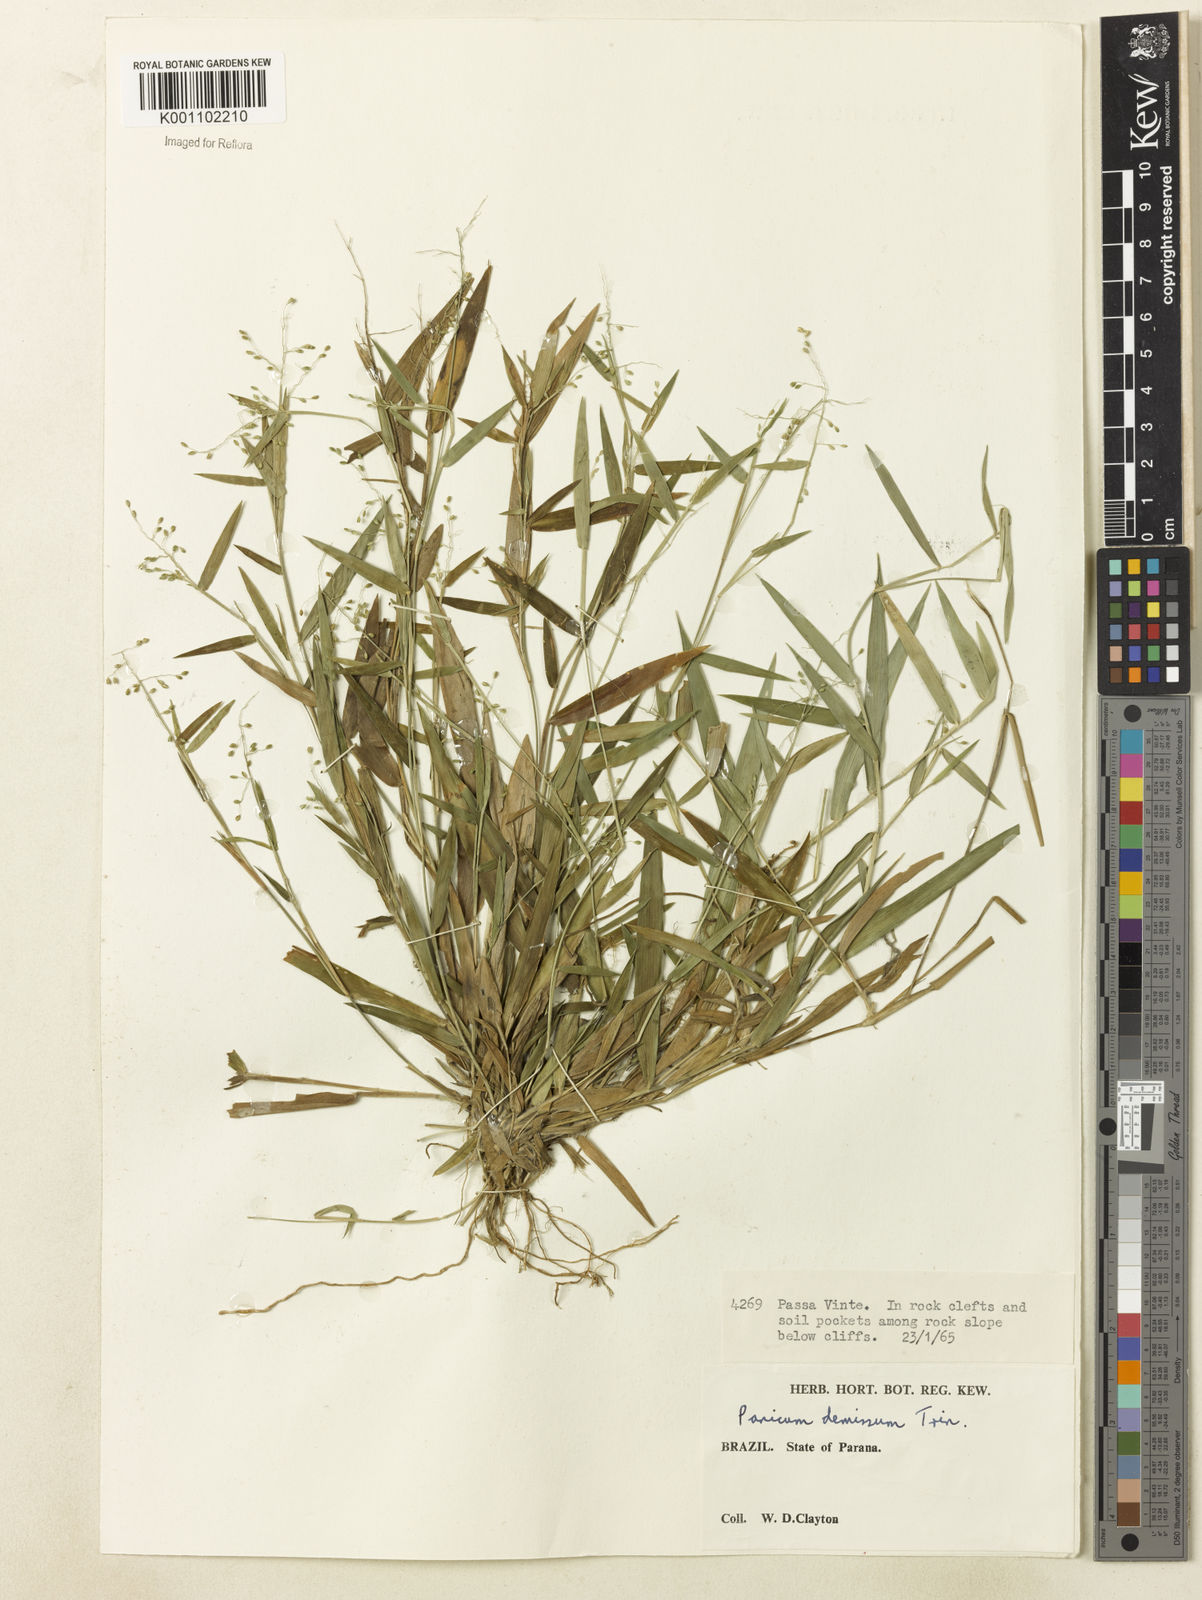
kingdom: Plantae
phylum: Tracheophyta
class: Liliopsida
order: Poales
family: Poaceae
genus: Dichanthelium
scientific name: Dichanthelium sabulorum
